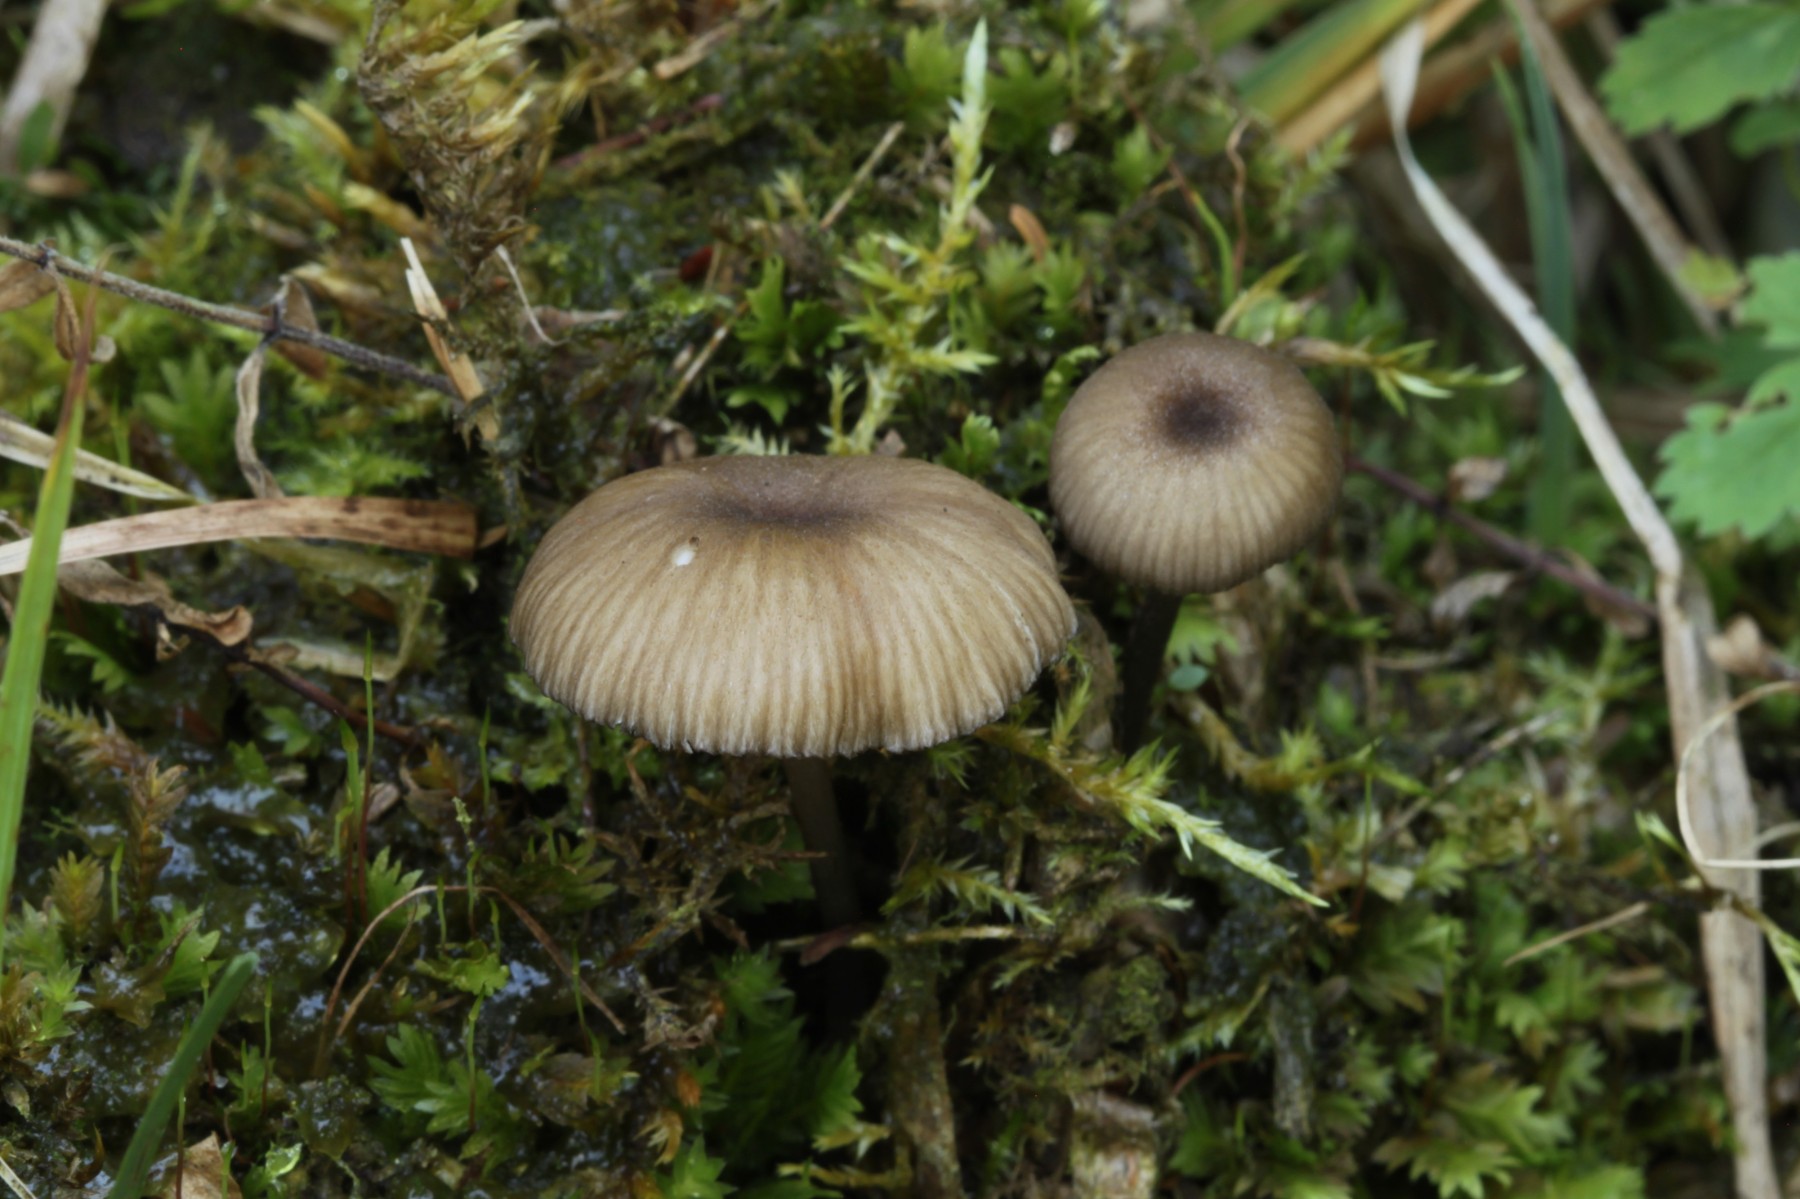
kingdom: Fungi
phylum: Basidiomycota
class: Agaricomycetes
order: Agaricales
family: Entolomataceae
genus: Entoloma
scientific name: Entoloma
